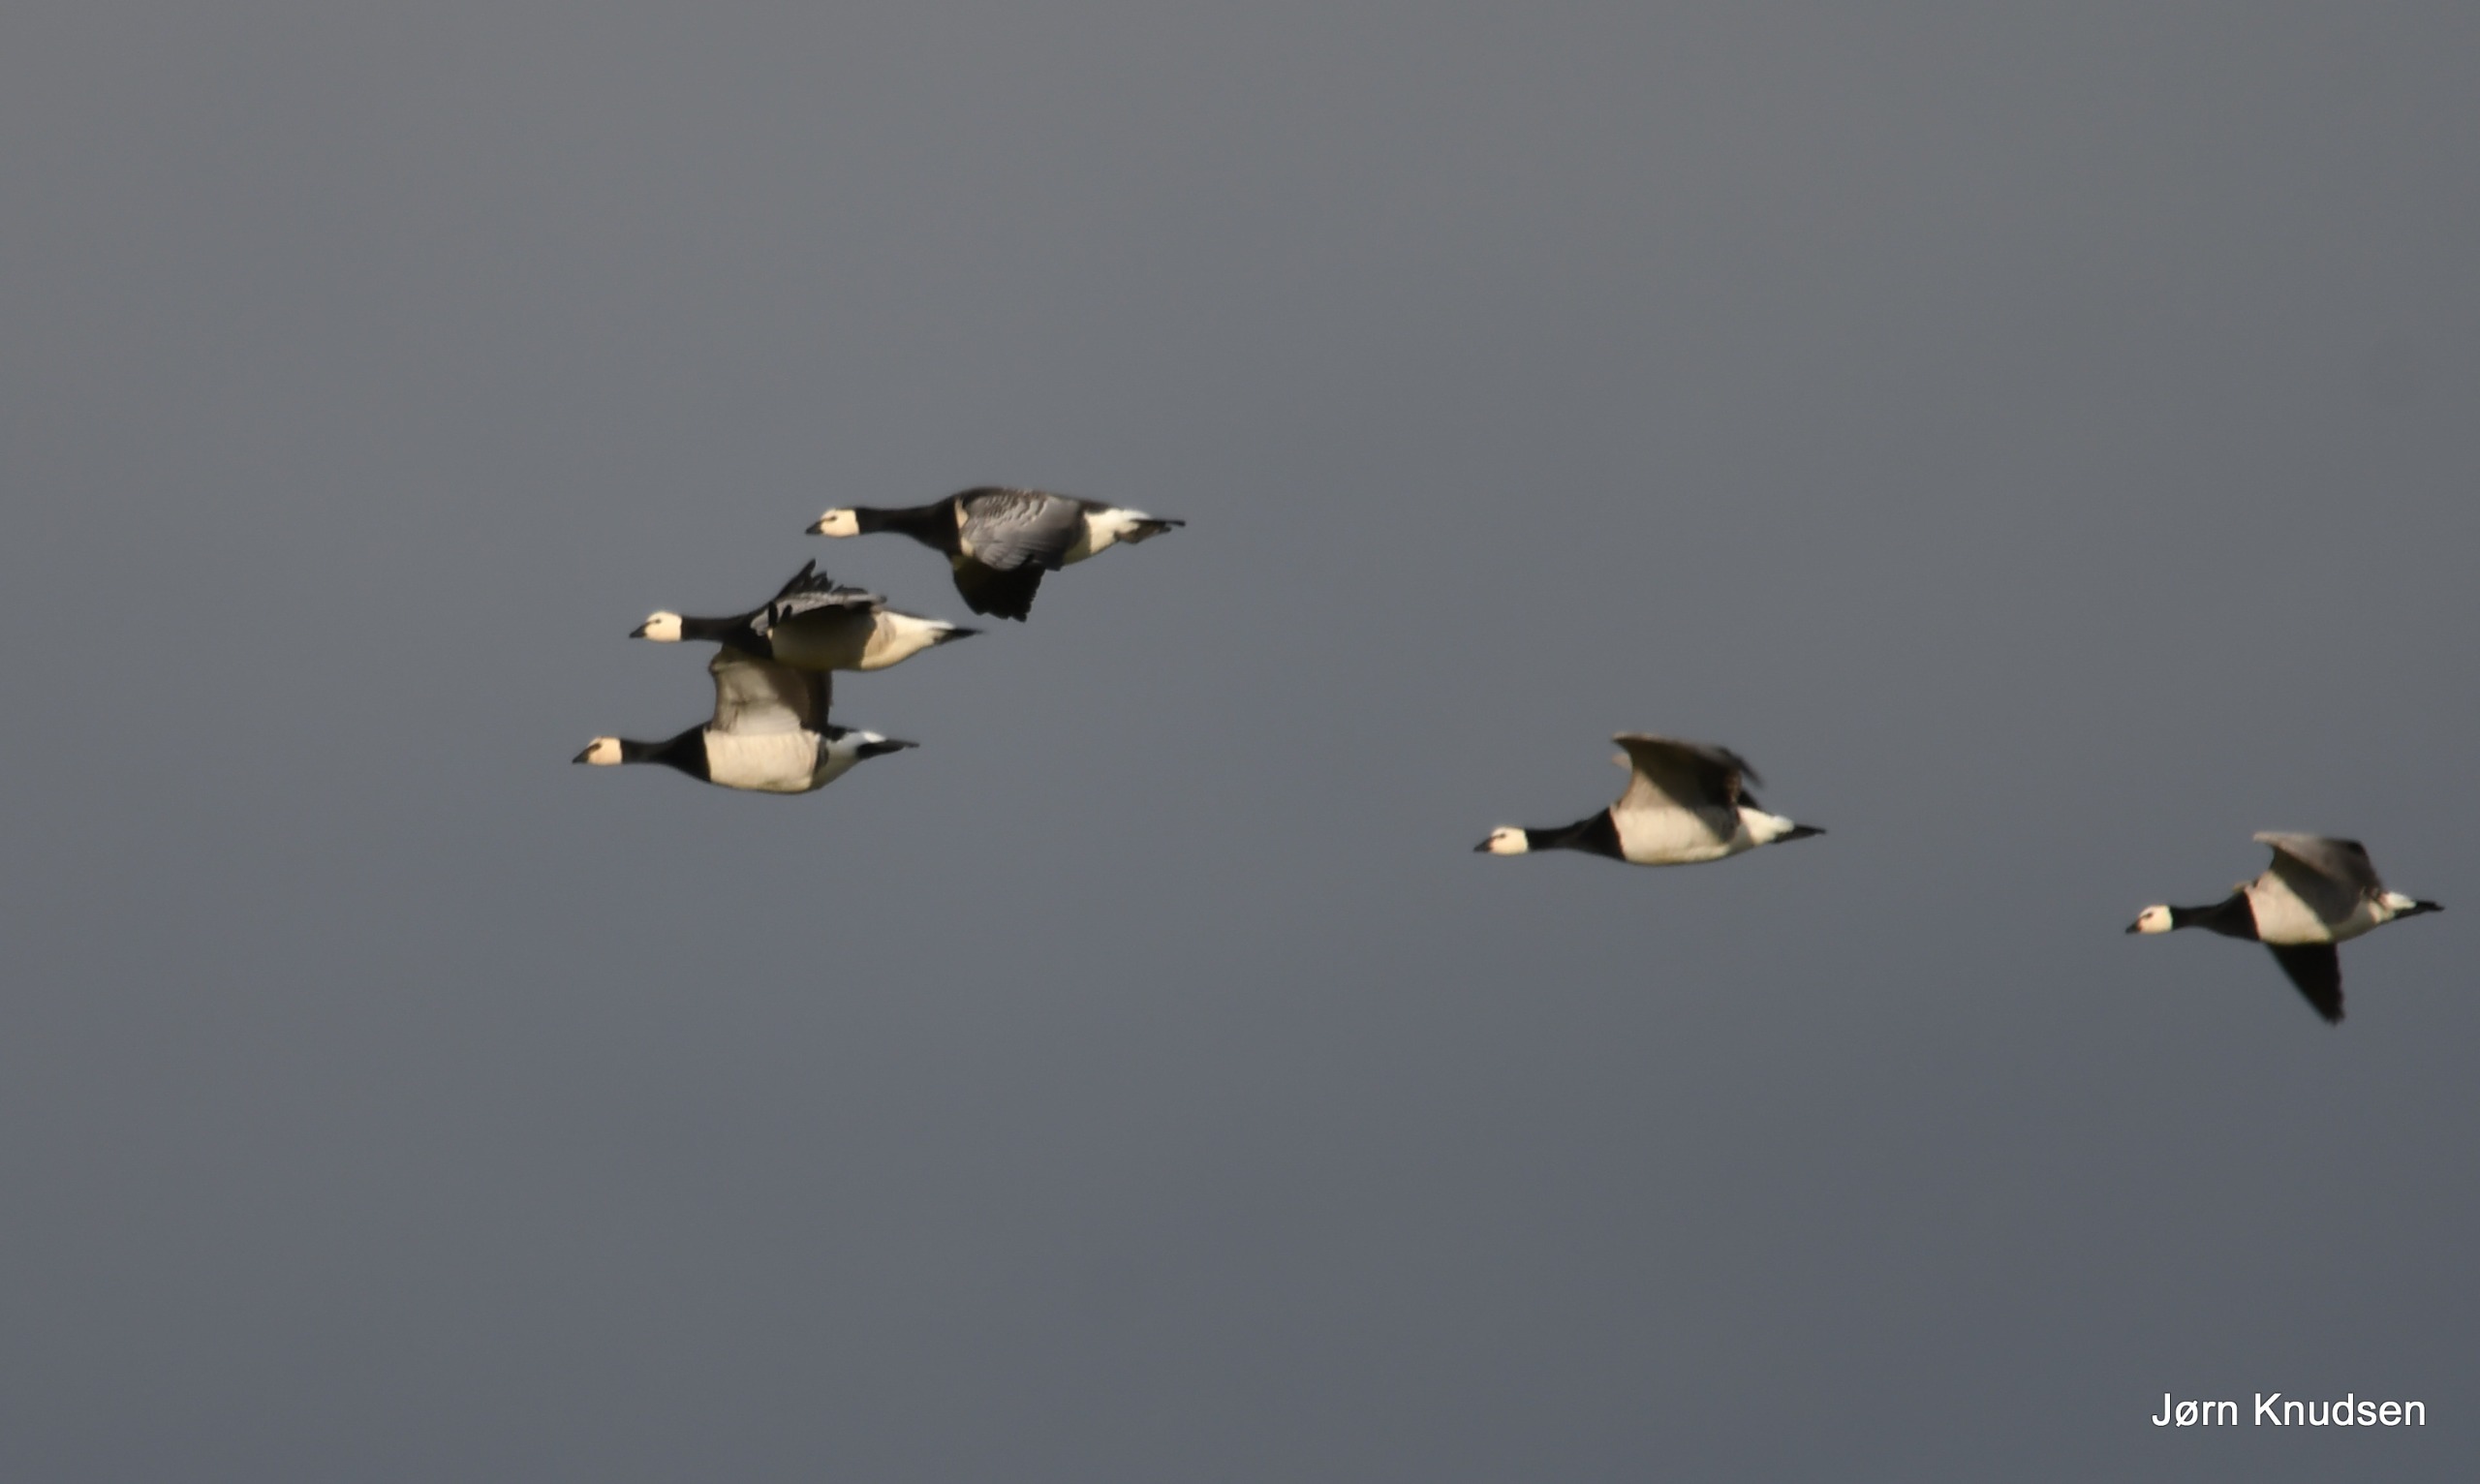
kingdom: Animalia
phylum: Chordata
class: Aves
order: Anseriformes
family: Anatidae
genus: Branta
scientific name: Branta leucopsis
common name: Bramgås
